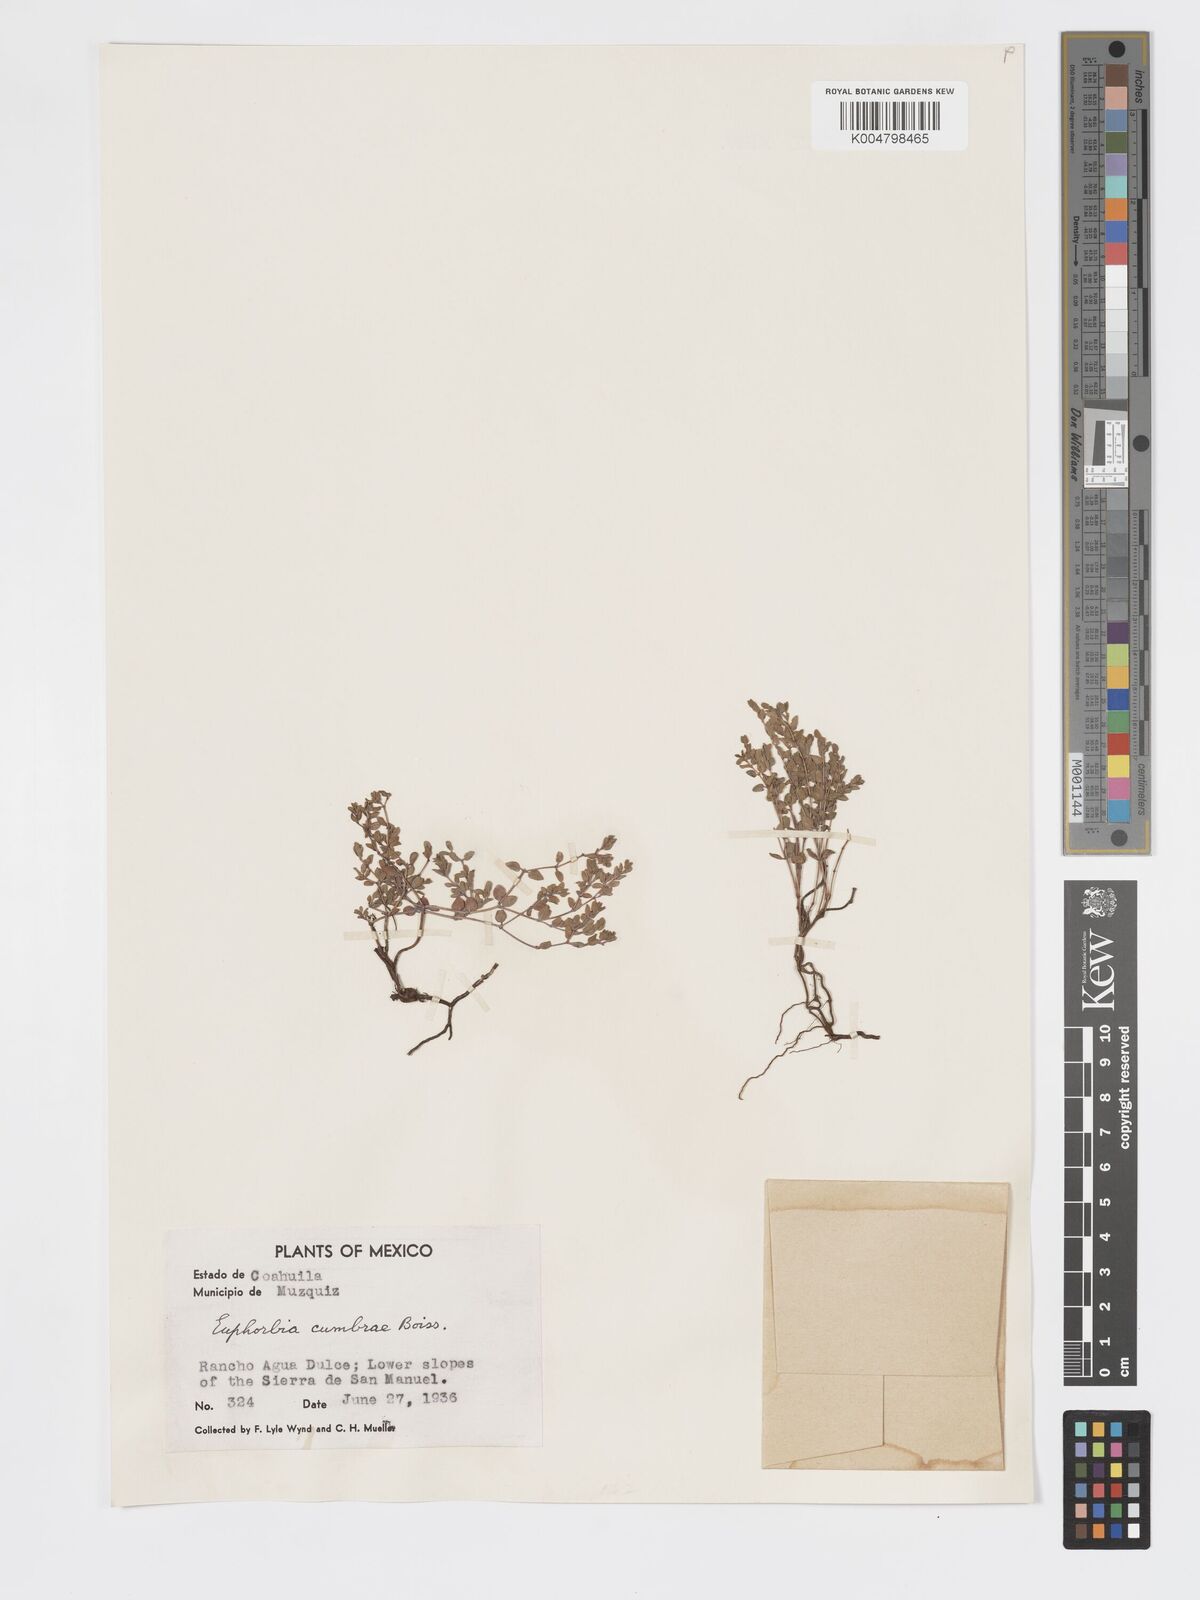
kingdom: Plantae
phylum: Tracheophyta
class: Magnoliopsida
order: Malpighiales
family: Euphorbiaceae
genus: Euphorbia
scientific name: Euphorbia cumbrae
